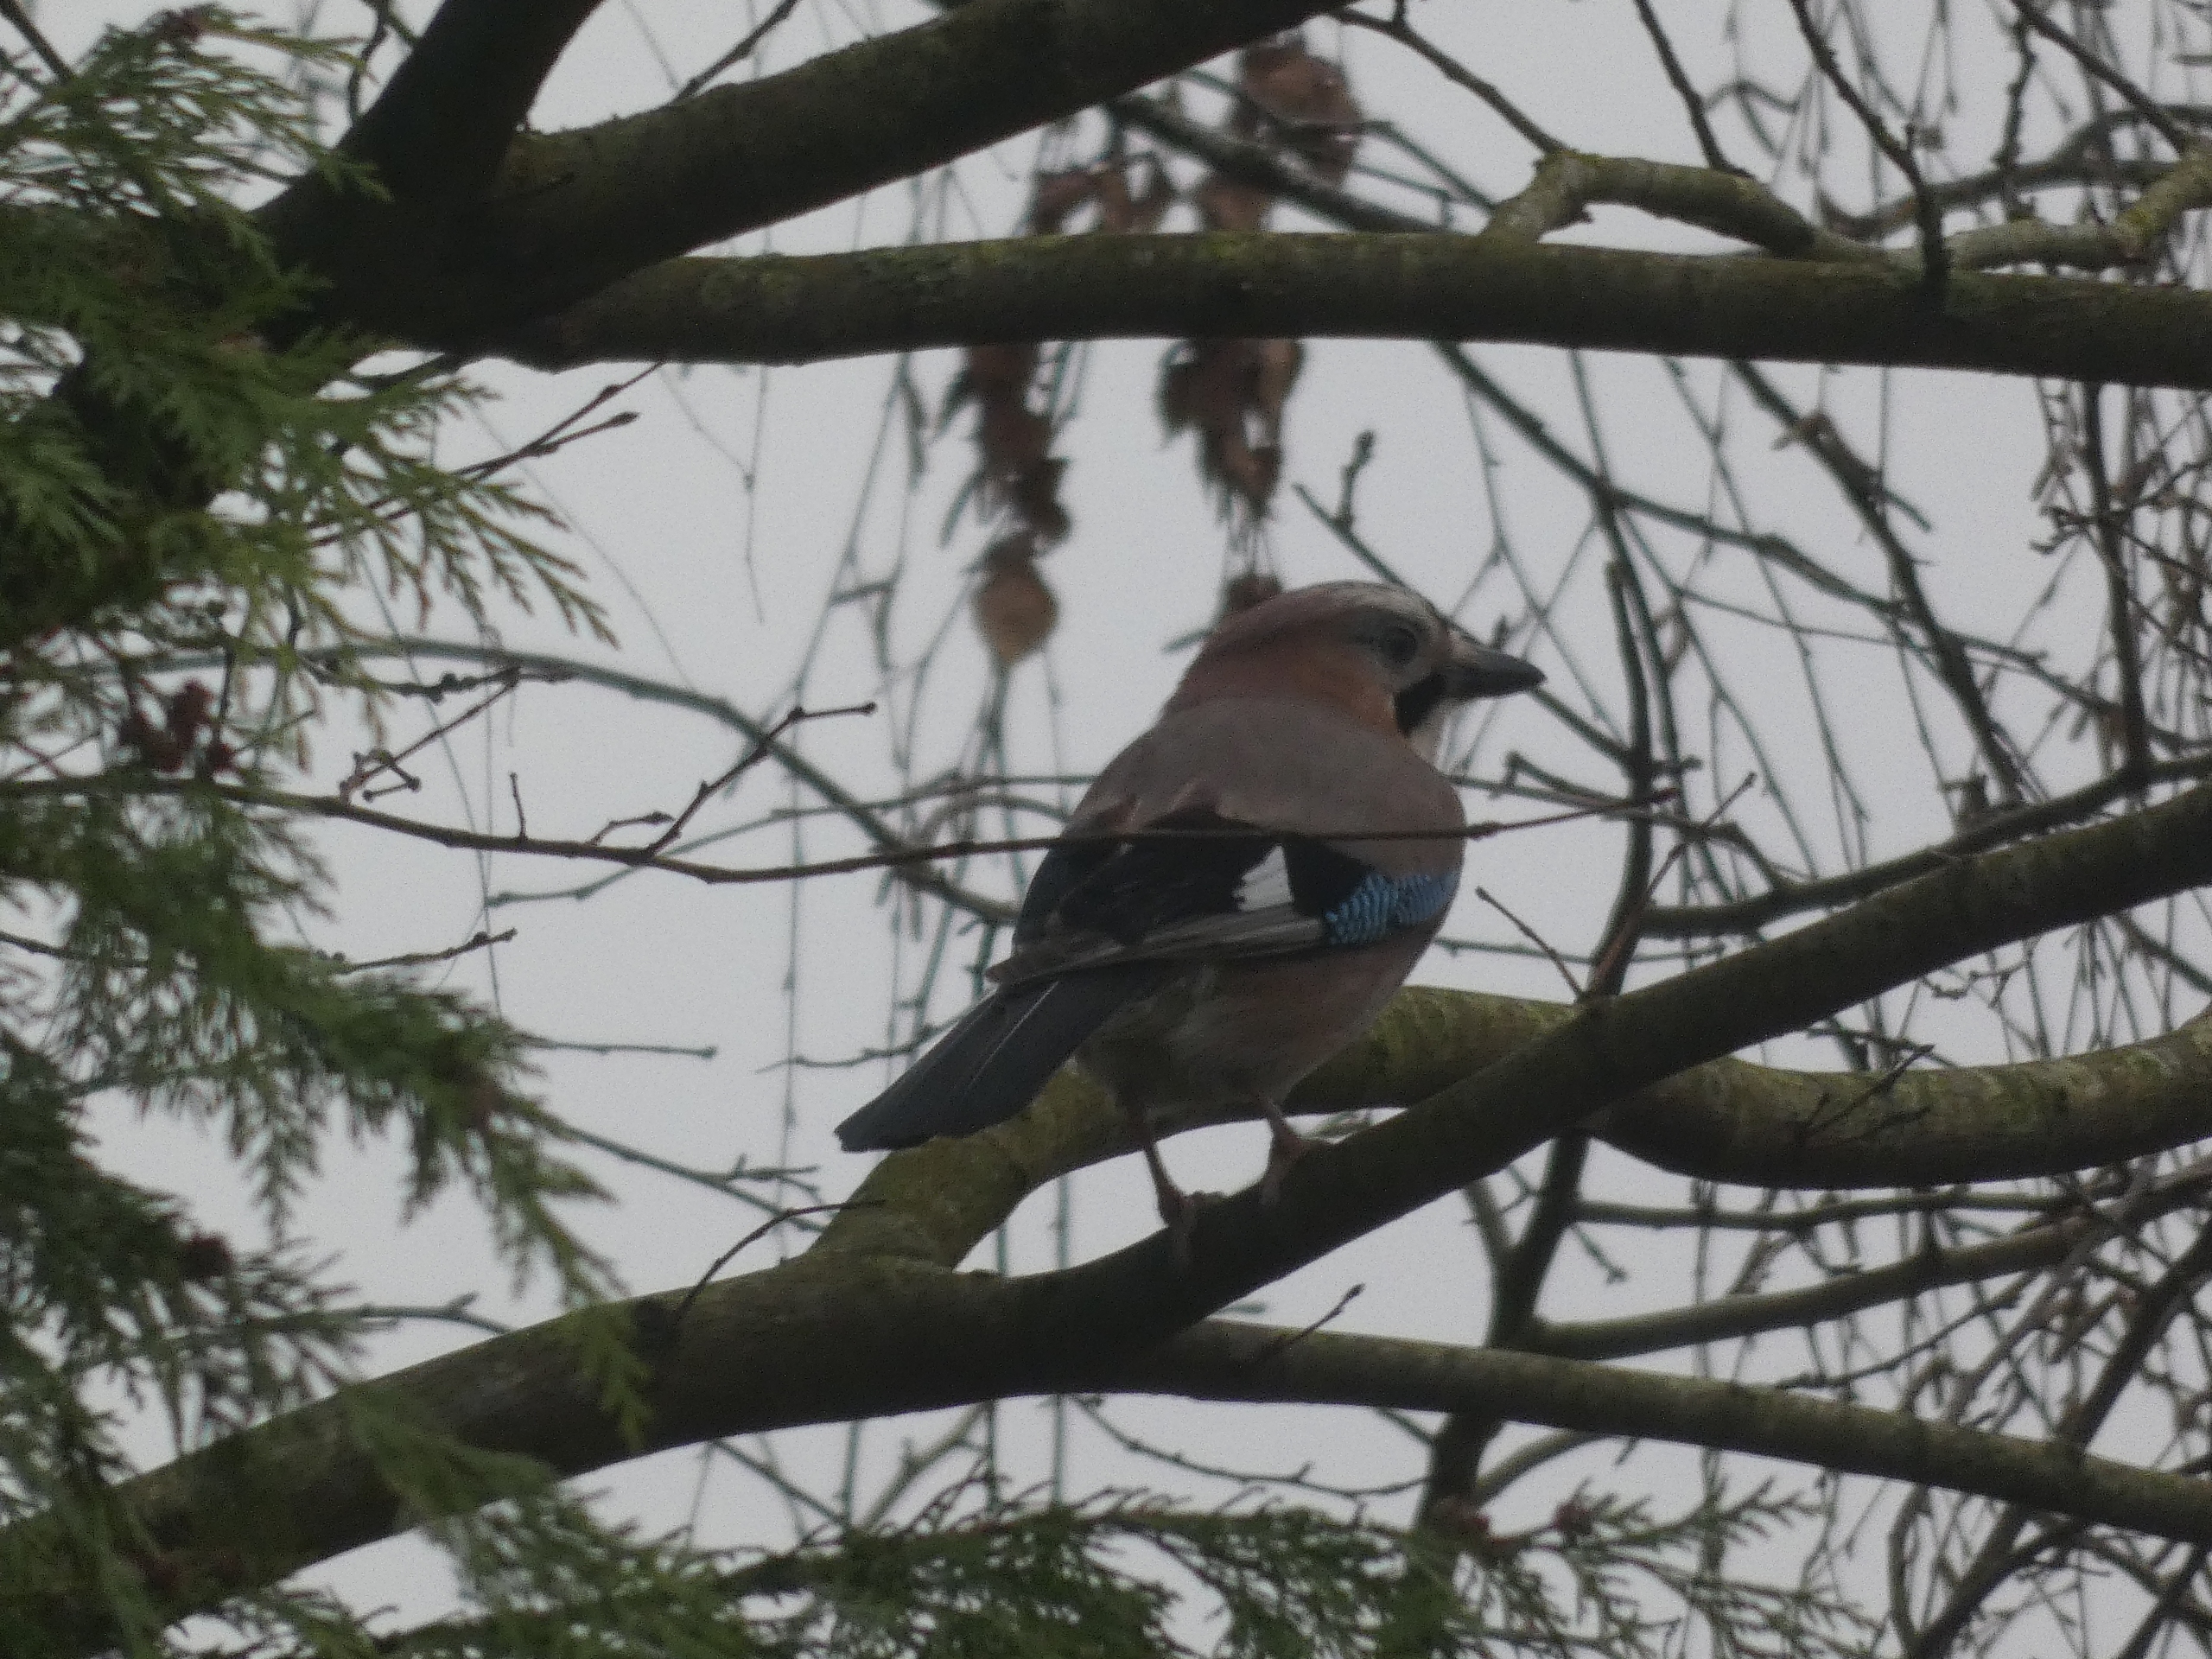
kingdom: Animalia
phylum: Chordata
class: Aves
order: Passeriformes
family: Corvidae
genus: Garrulus
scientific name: Garrulus glandarius
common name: Skovskade
